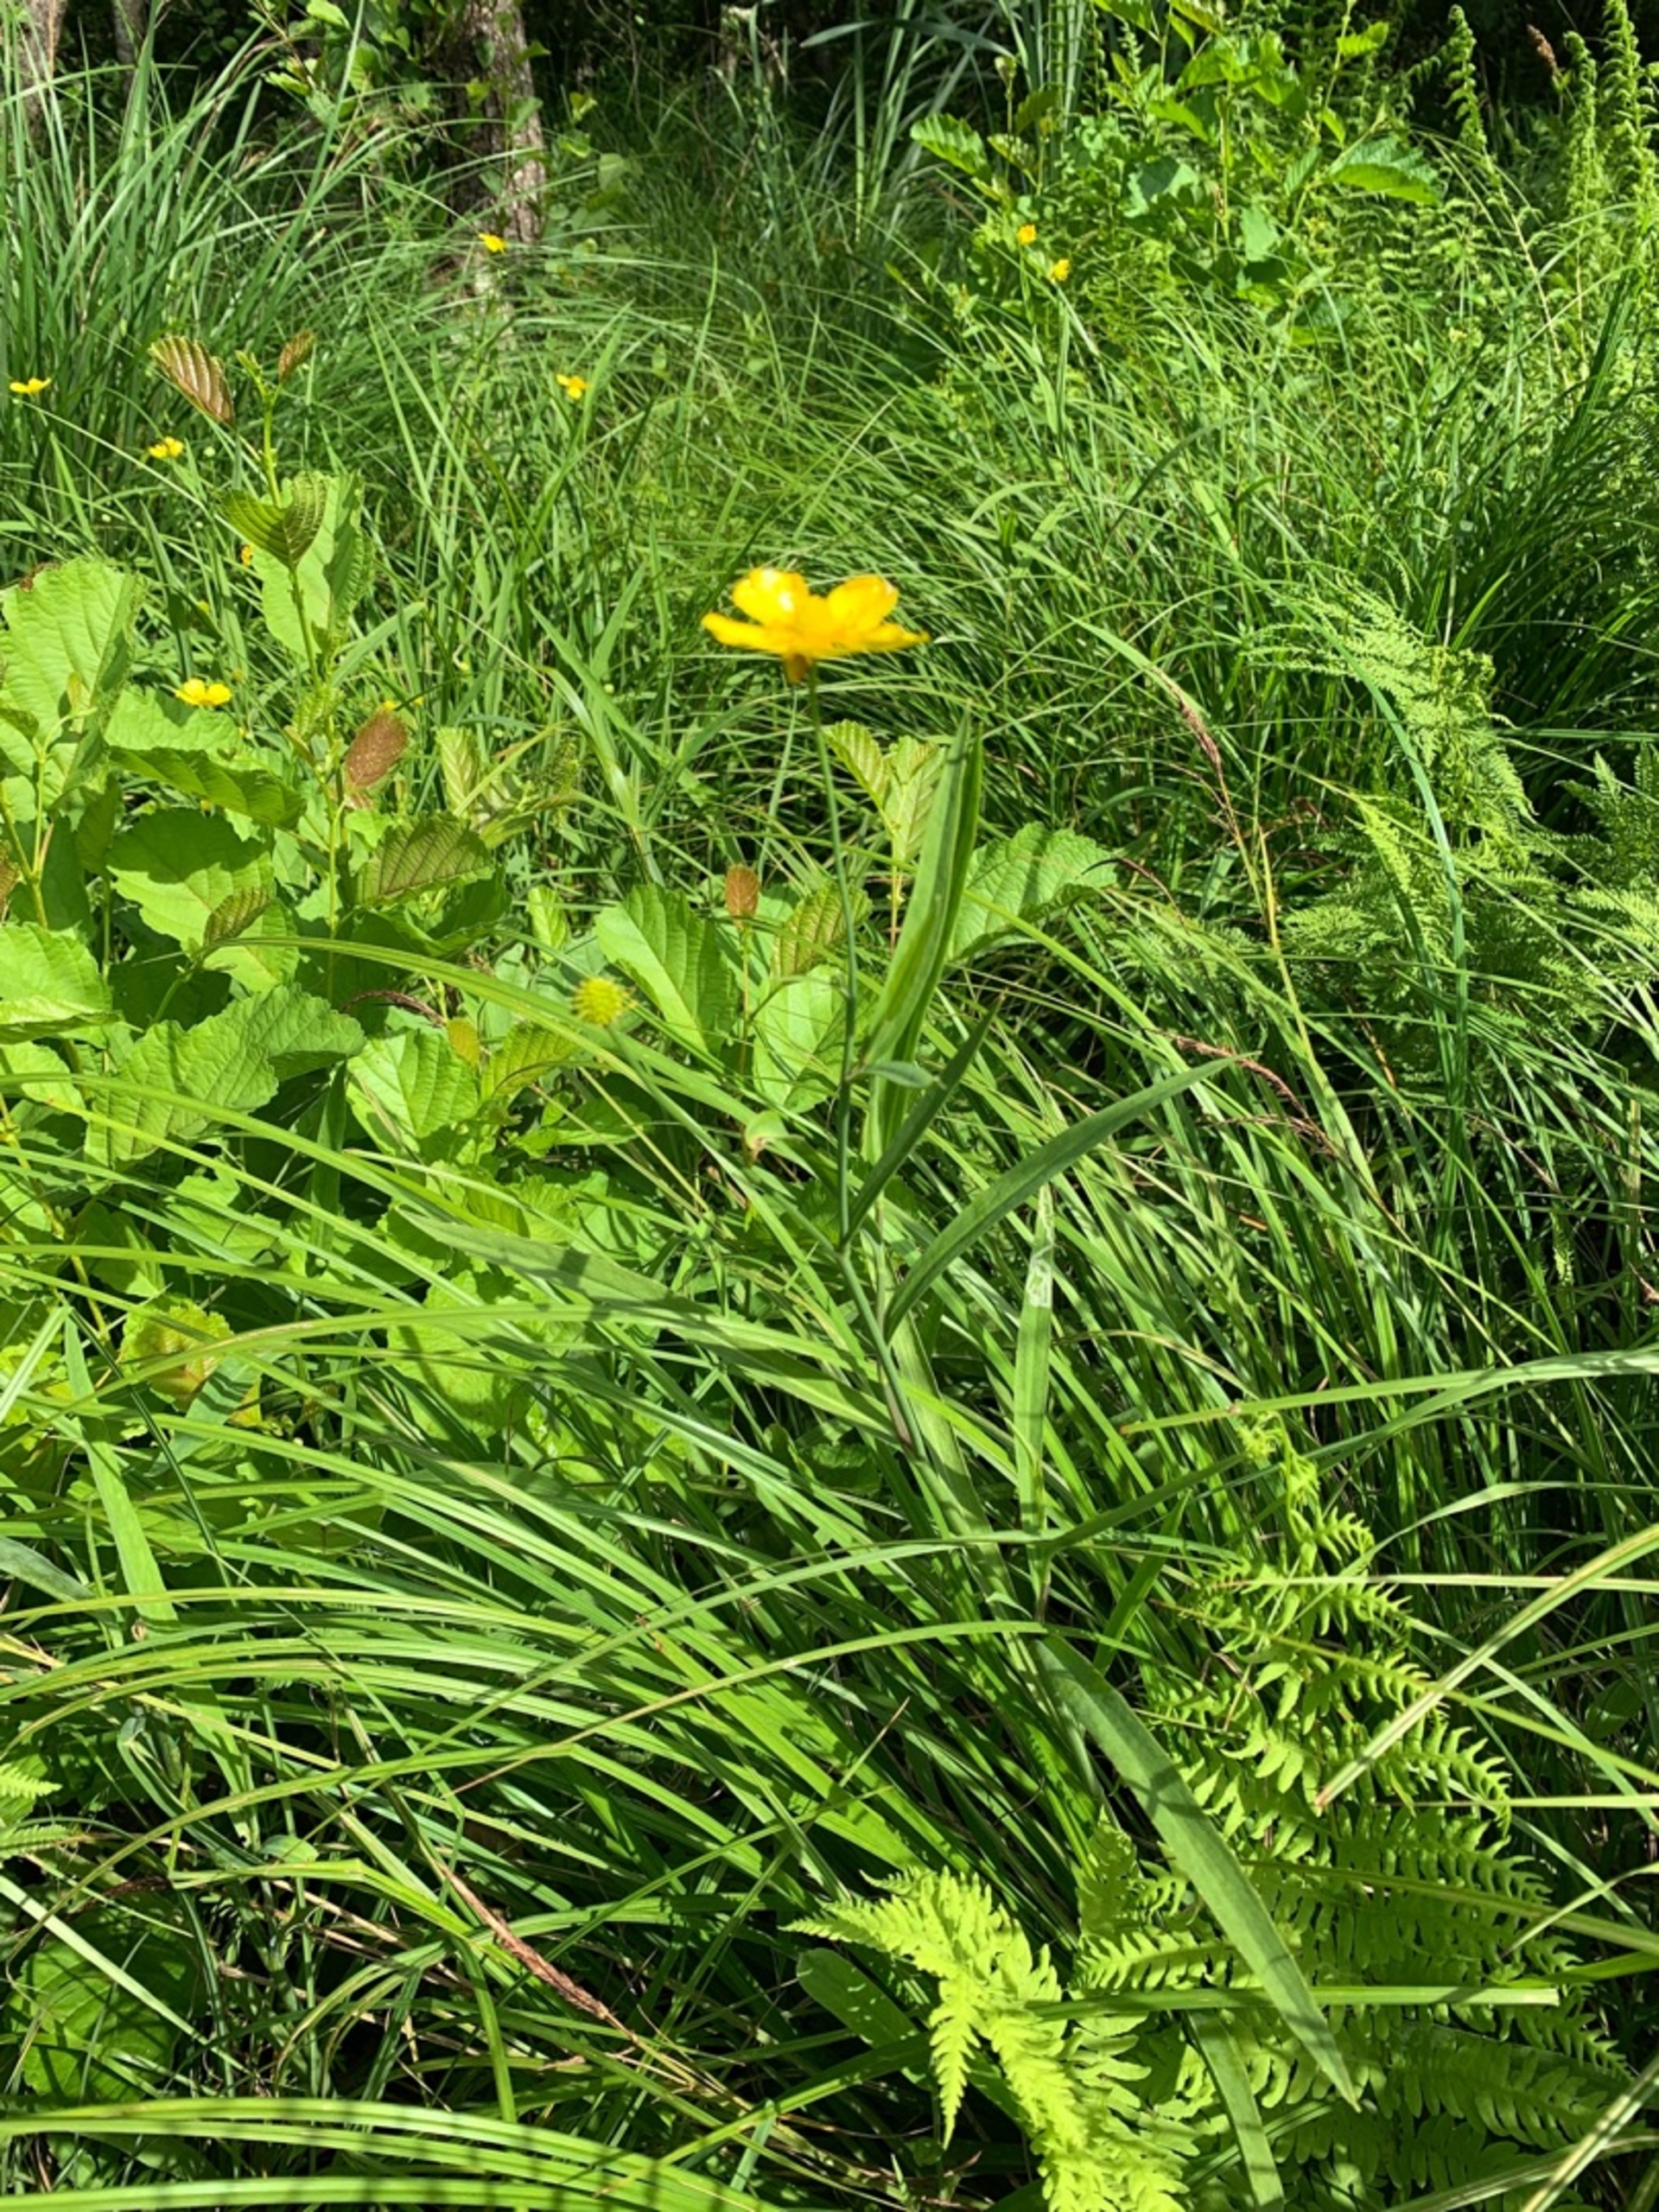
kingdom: Plantae
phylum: Tracheophyta
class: Magnoliopsida
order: Ranunculales
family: Ranunculaceae
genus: Ranunculus
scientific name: Ranunculus lingua
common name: Langbladet ranunkel
